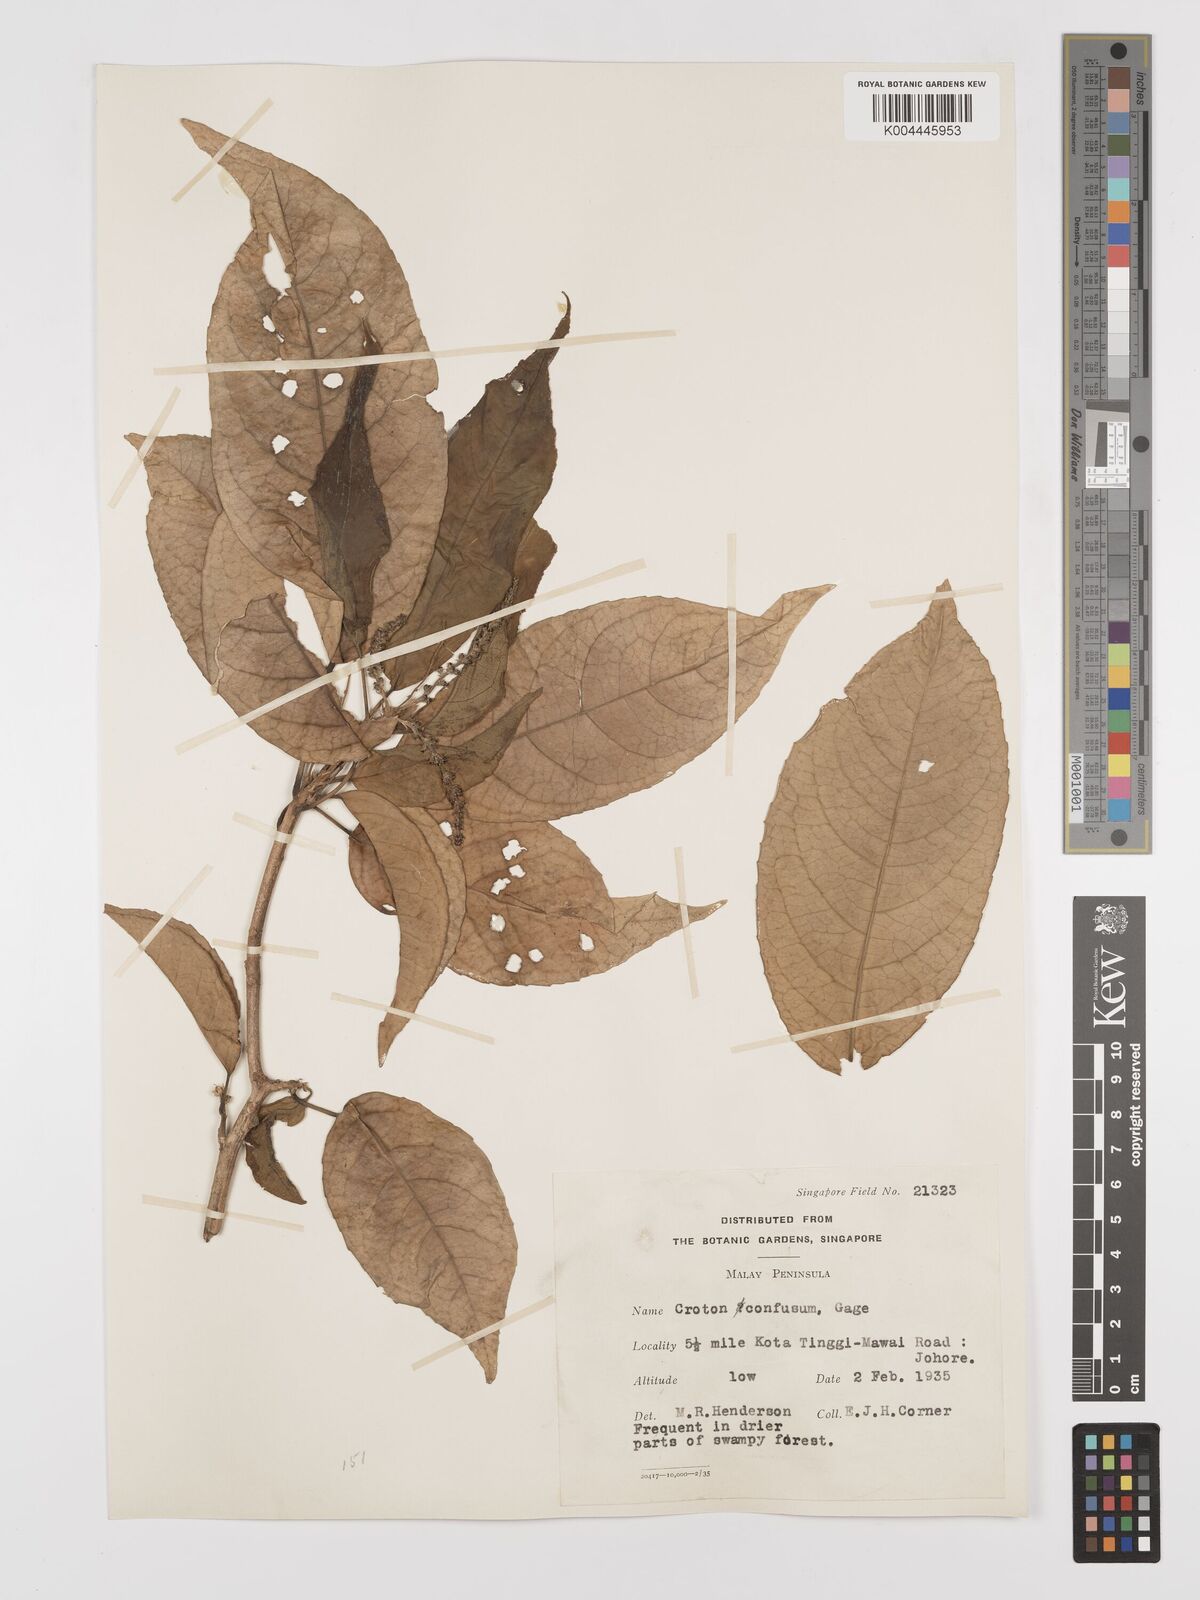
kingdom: Plantae
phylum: Tracheophyta
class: Magnoliopsida
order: Malpighiales
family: Euphorbiaceae
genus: Croton
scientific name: Croton griffithii
